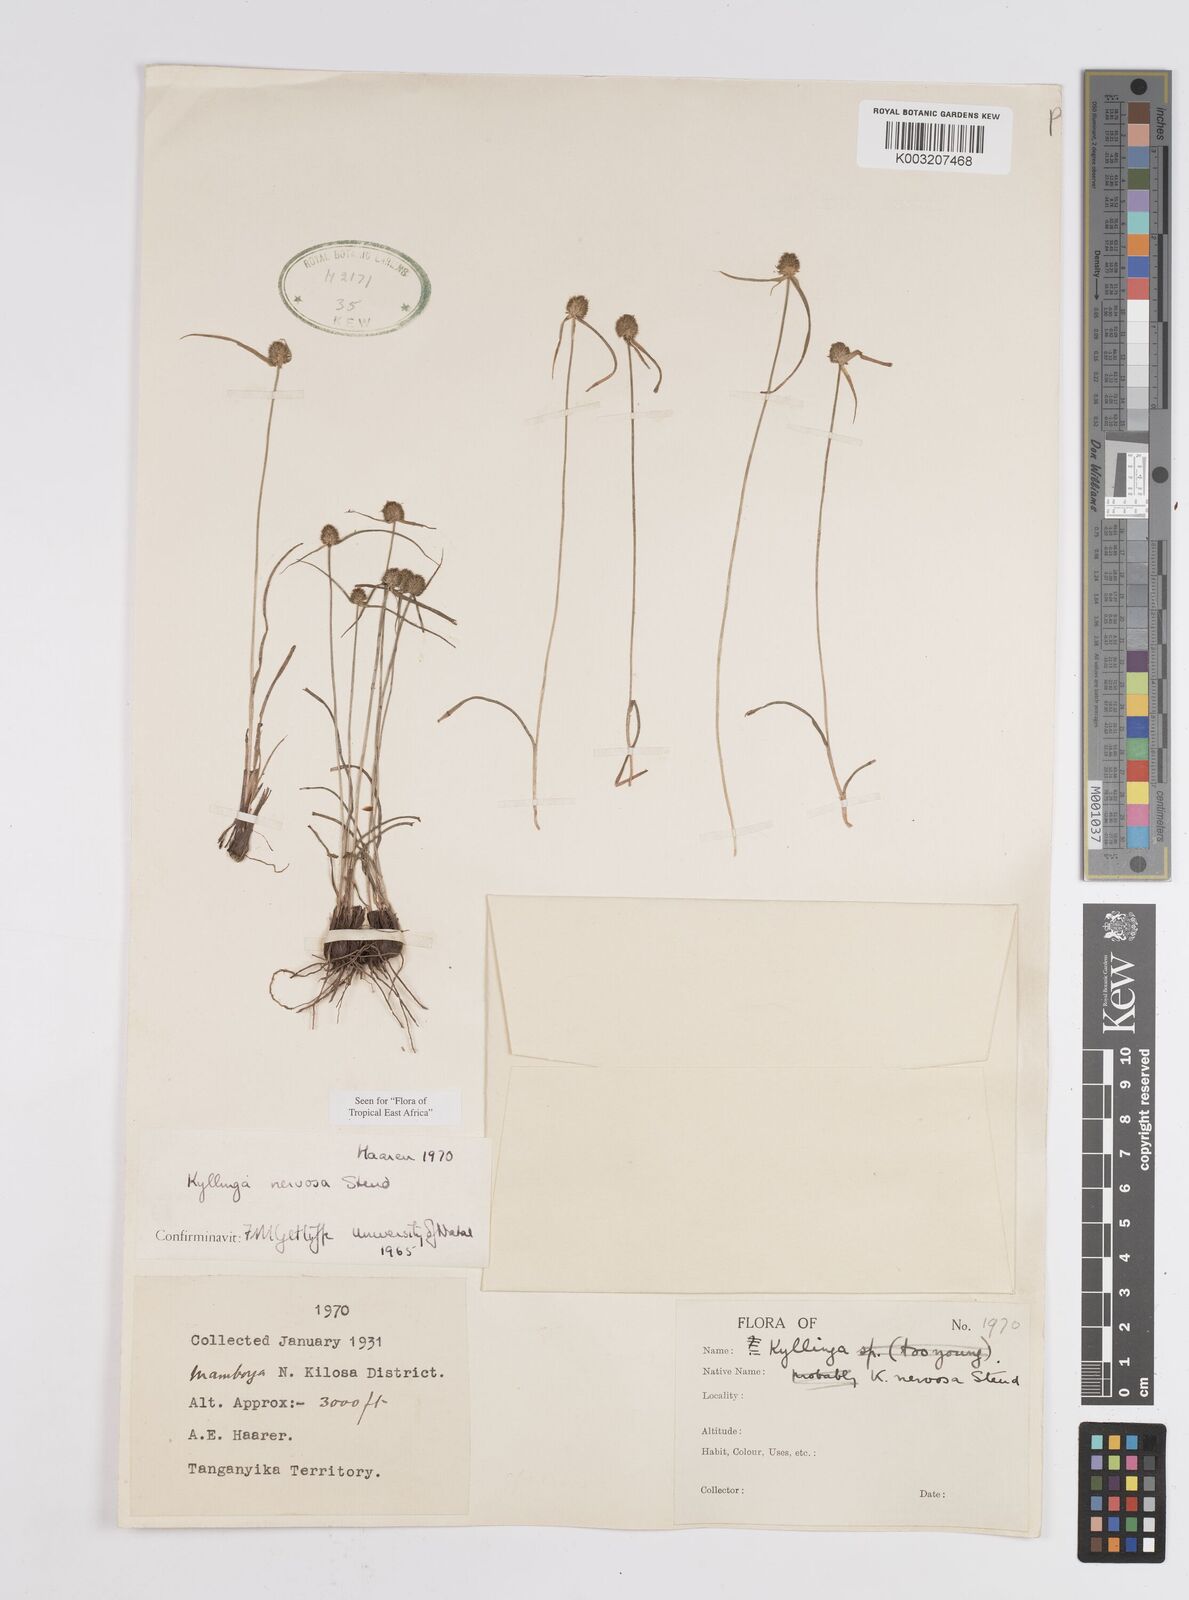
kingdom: Plantae
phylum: Tracheophyta
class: Liliopsida
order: Poales
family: Cyperaceae
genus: Cyperus
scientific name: Cyperus
